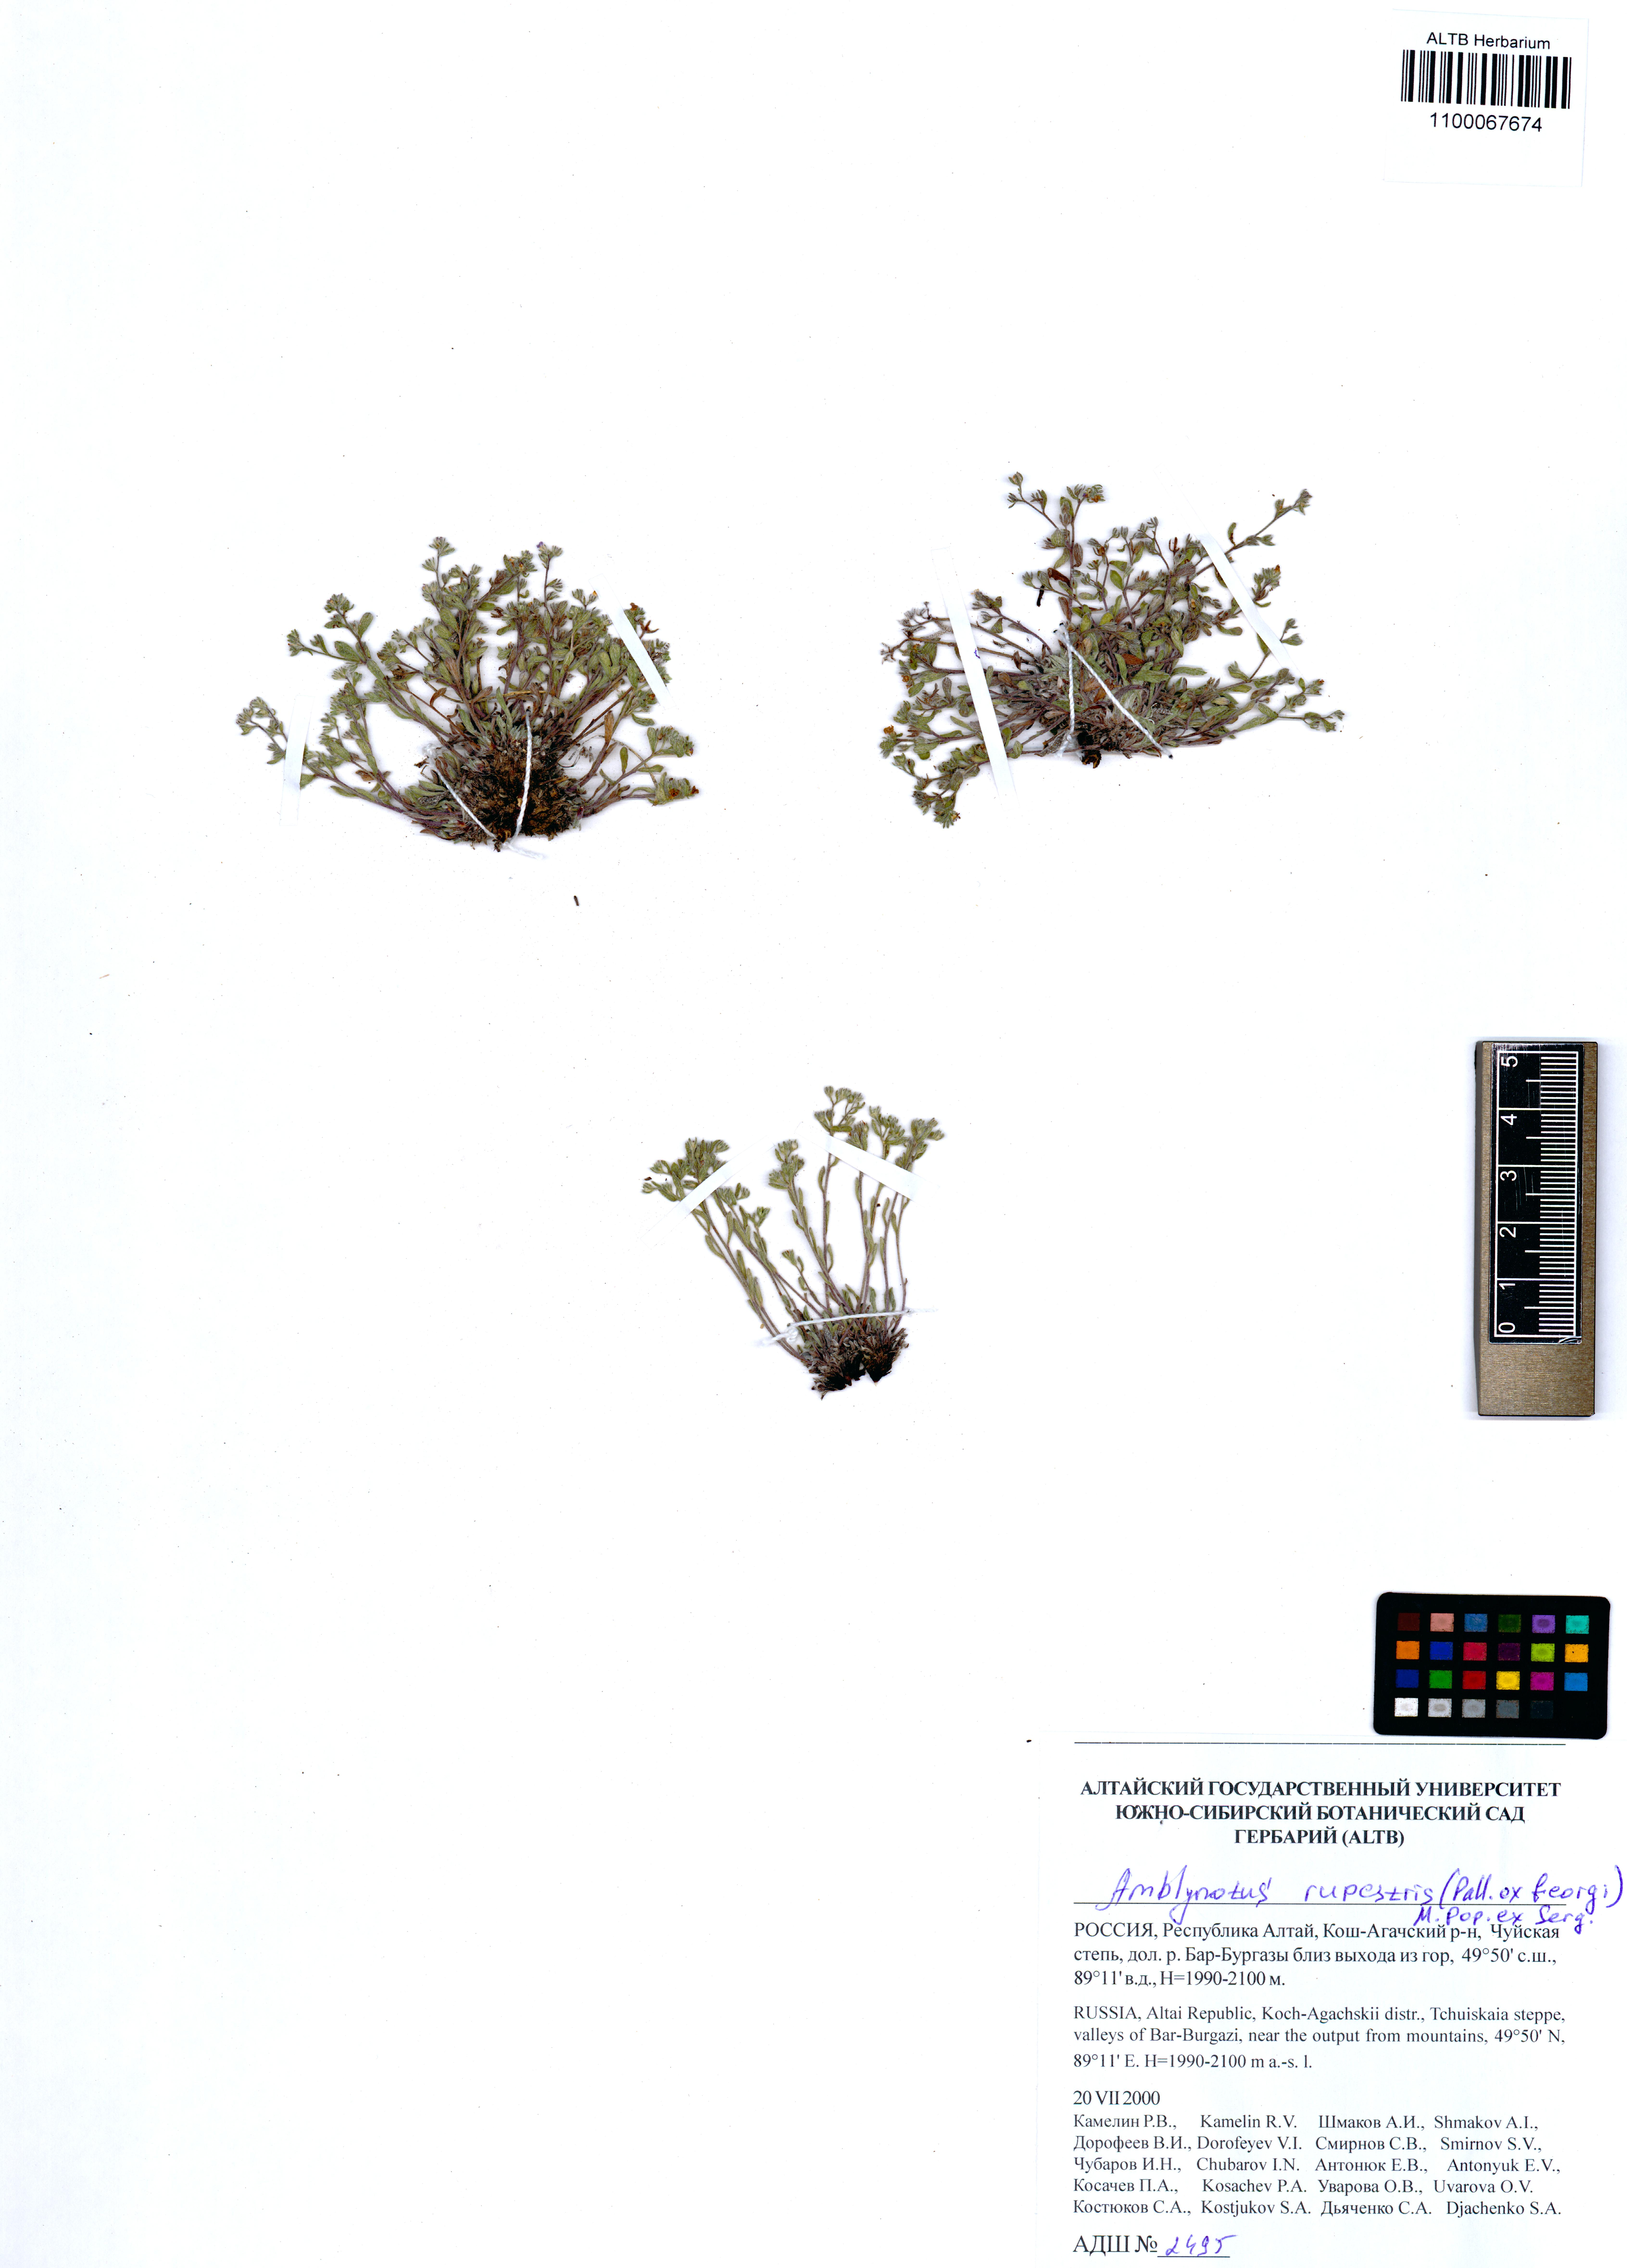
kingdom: Plantae
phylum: Tracheophyta
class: Magnoliopsida
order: Boraginales
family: Boraginaceae
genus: Eritrichium
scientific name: Eritrichium rupestre
